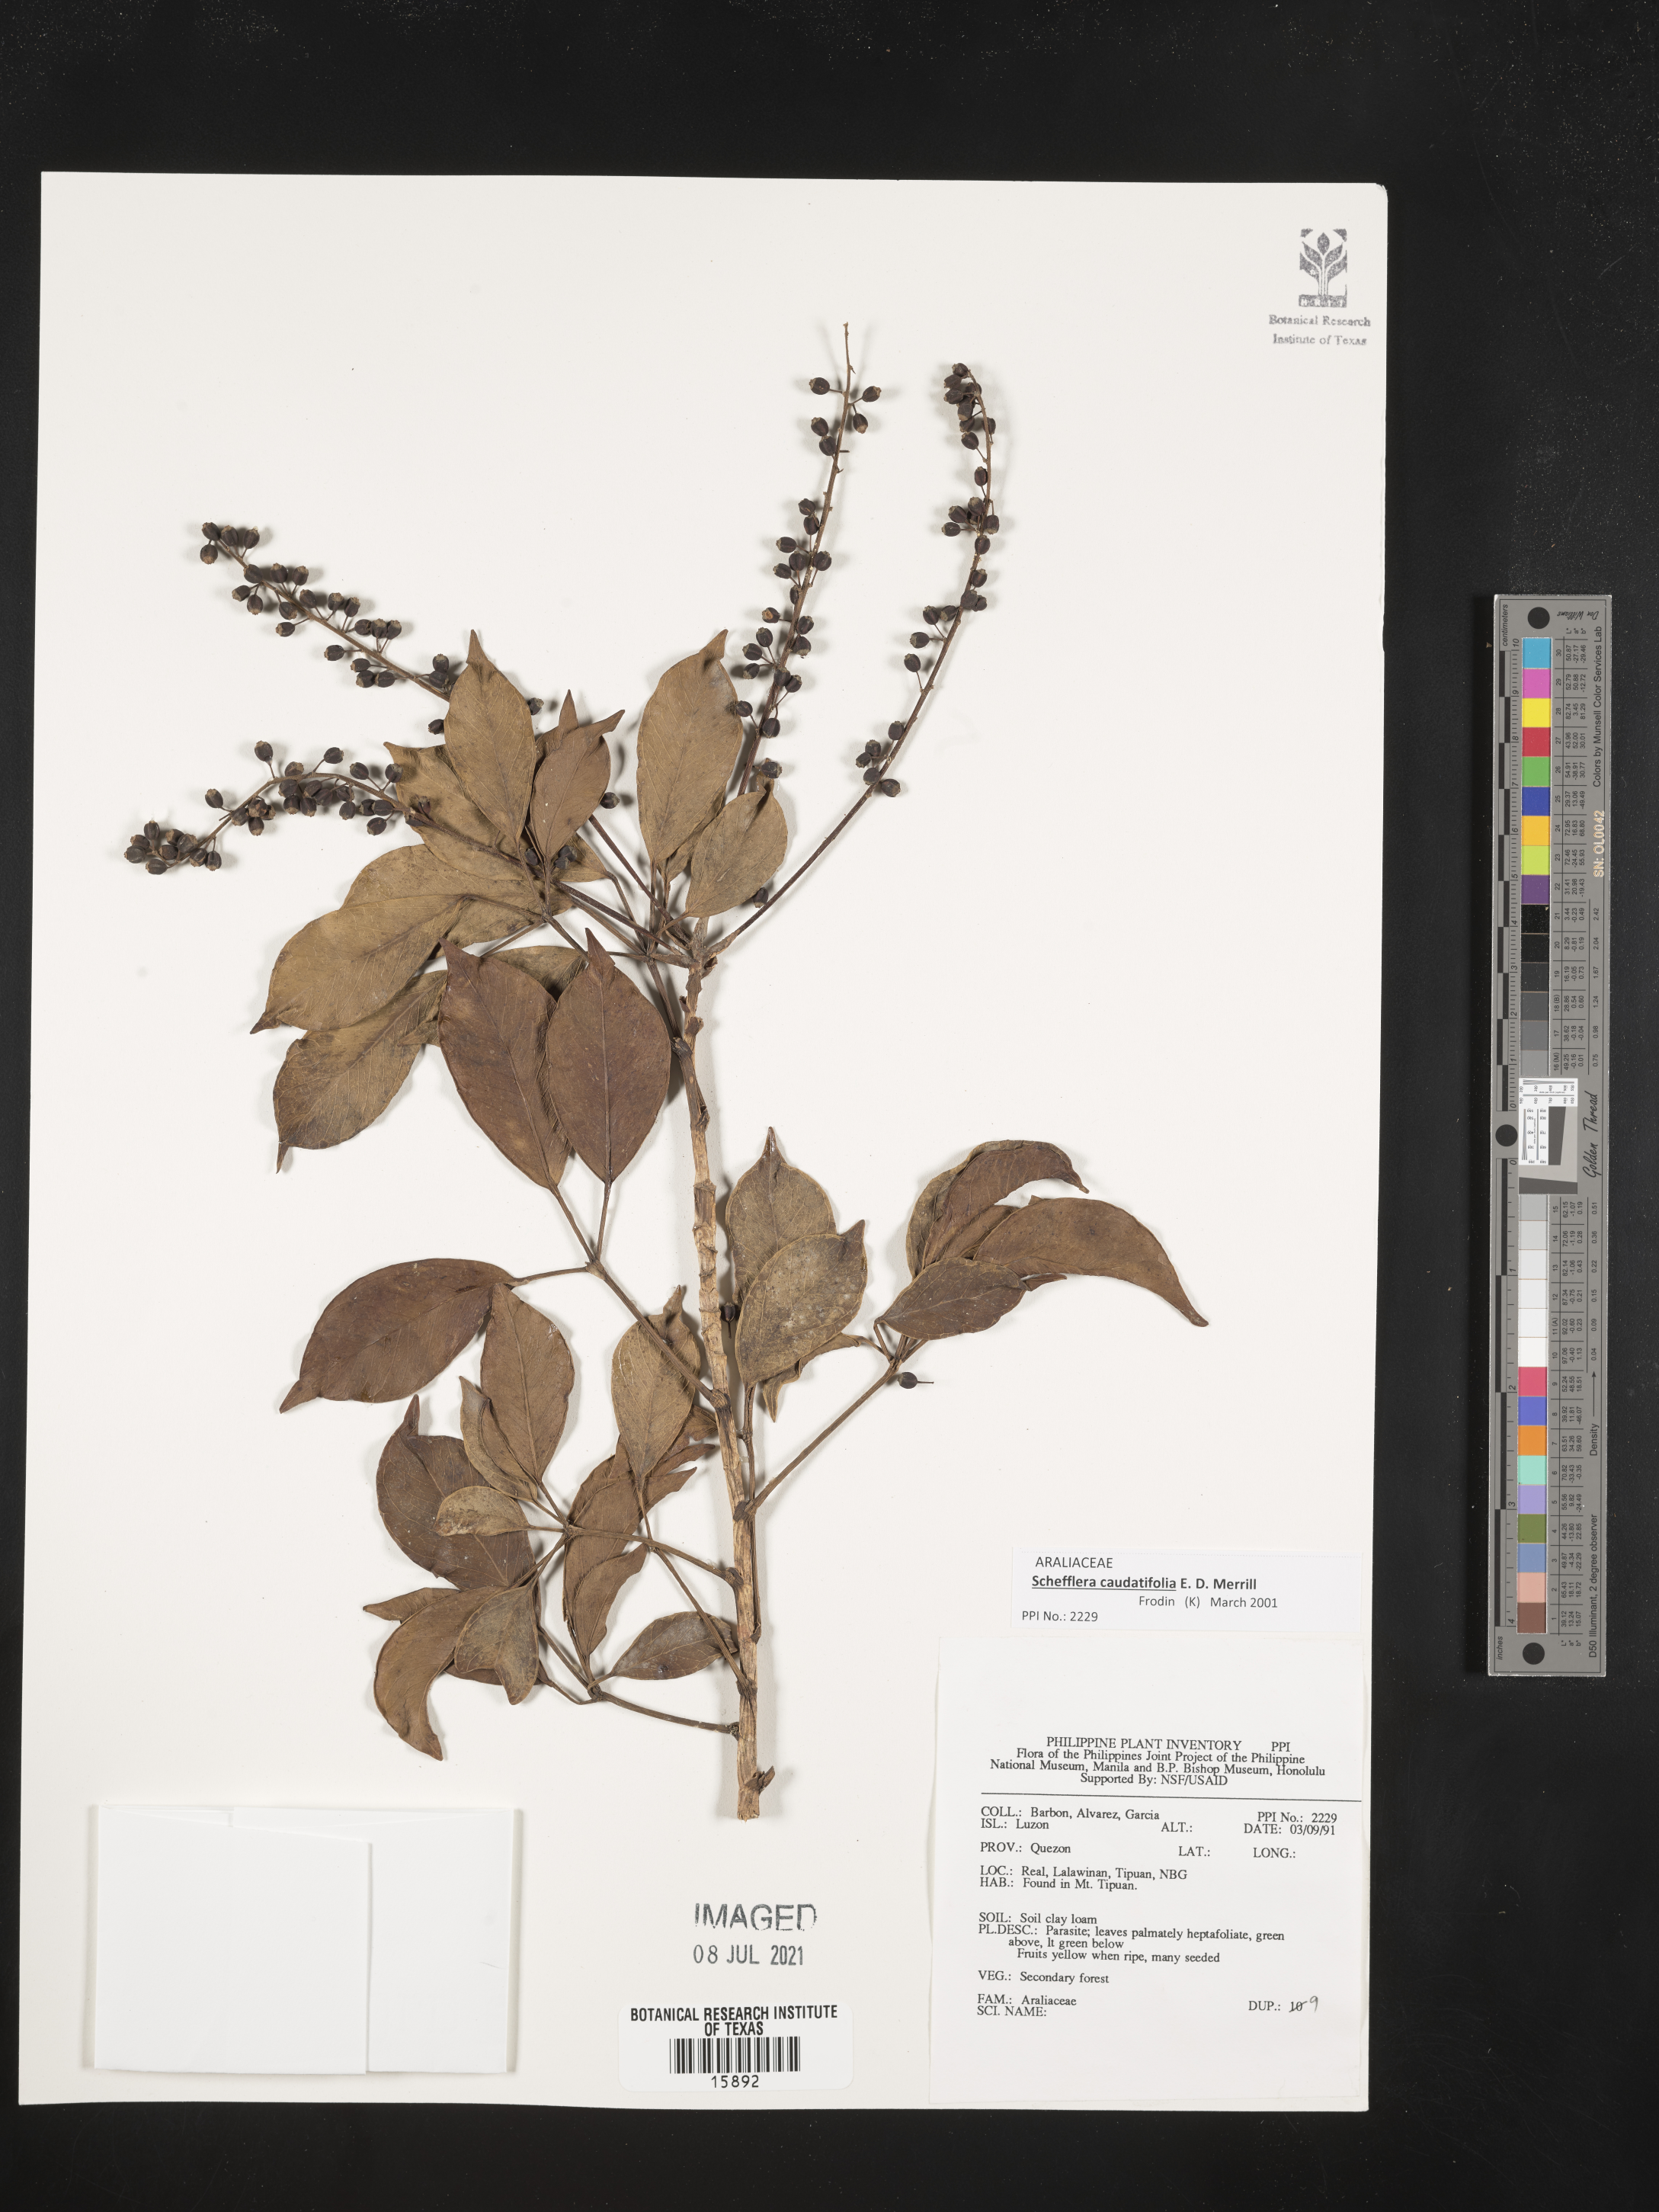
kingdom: Plantae
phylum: Tracheophyta
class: Magnoliopsida
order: Apiales
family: Araliaceae
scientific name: Araliaceae
